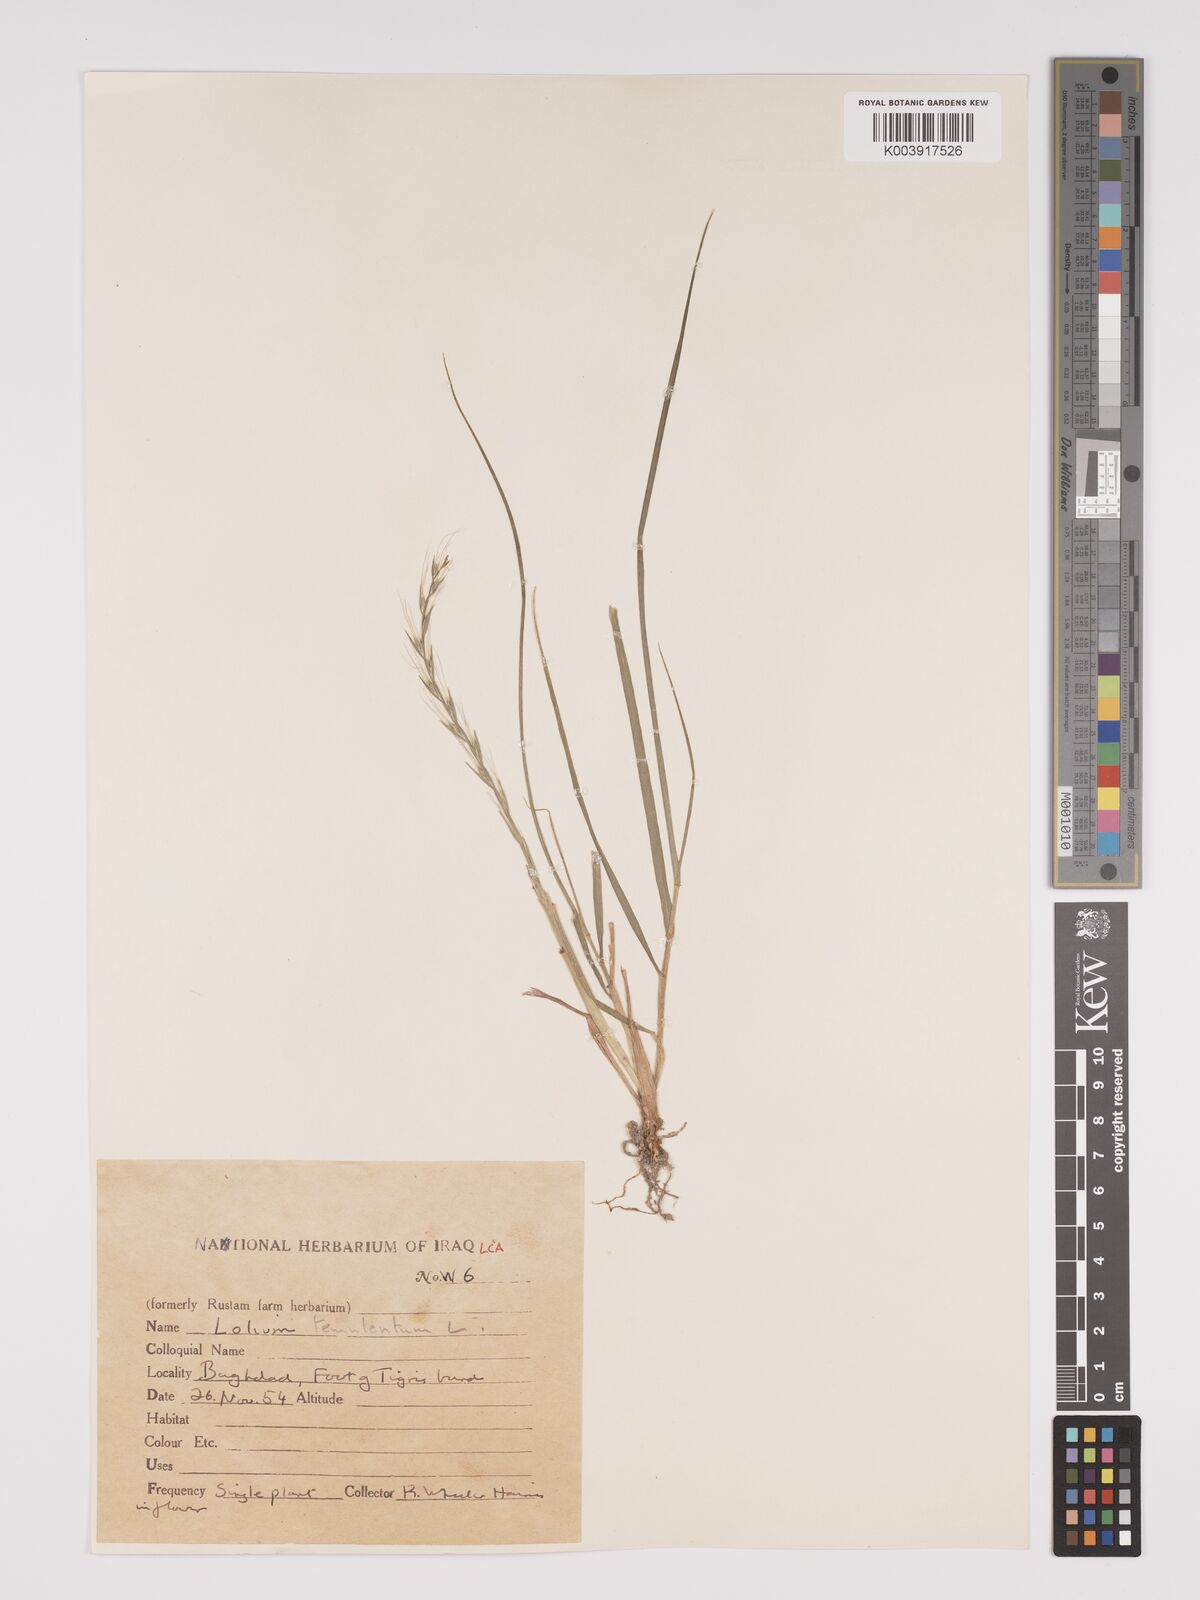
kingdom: Plantae
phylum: Tracheophyta
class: Liliopsida
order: Poales
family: Poaceae
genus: Lolium
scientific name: Lolium temulentum
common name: Darnel
